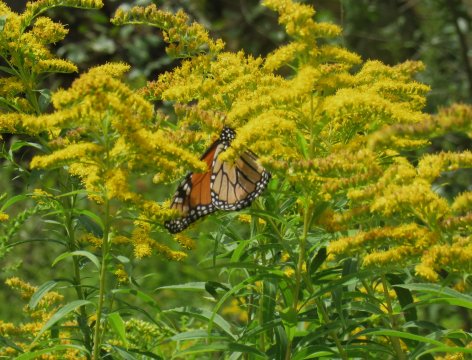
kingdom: Animalia
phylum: Arthropoda
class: Insecta
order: Lepidoptera
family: Nymphalidae
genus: Danaus
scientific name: Danaus plexippus
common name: Monarch
